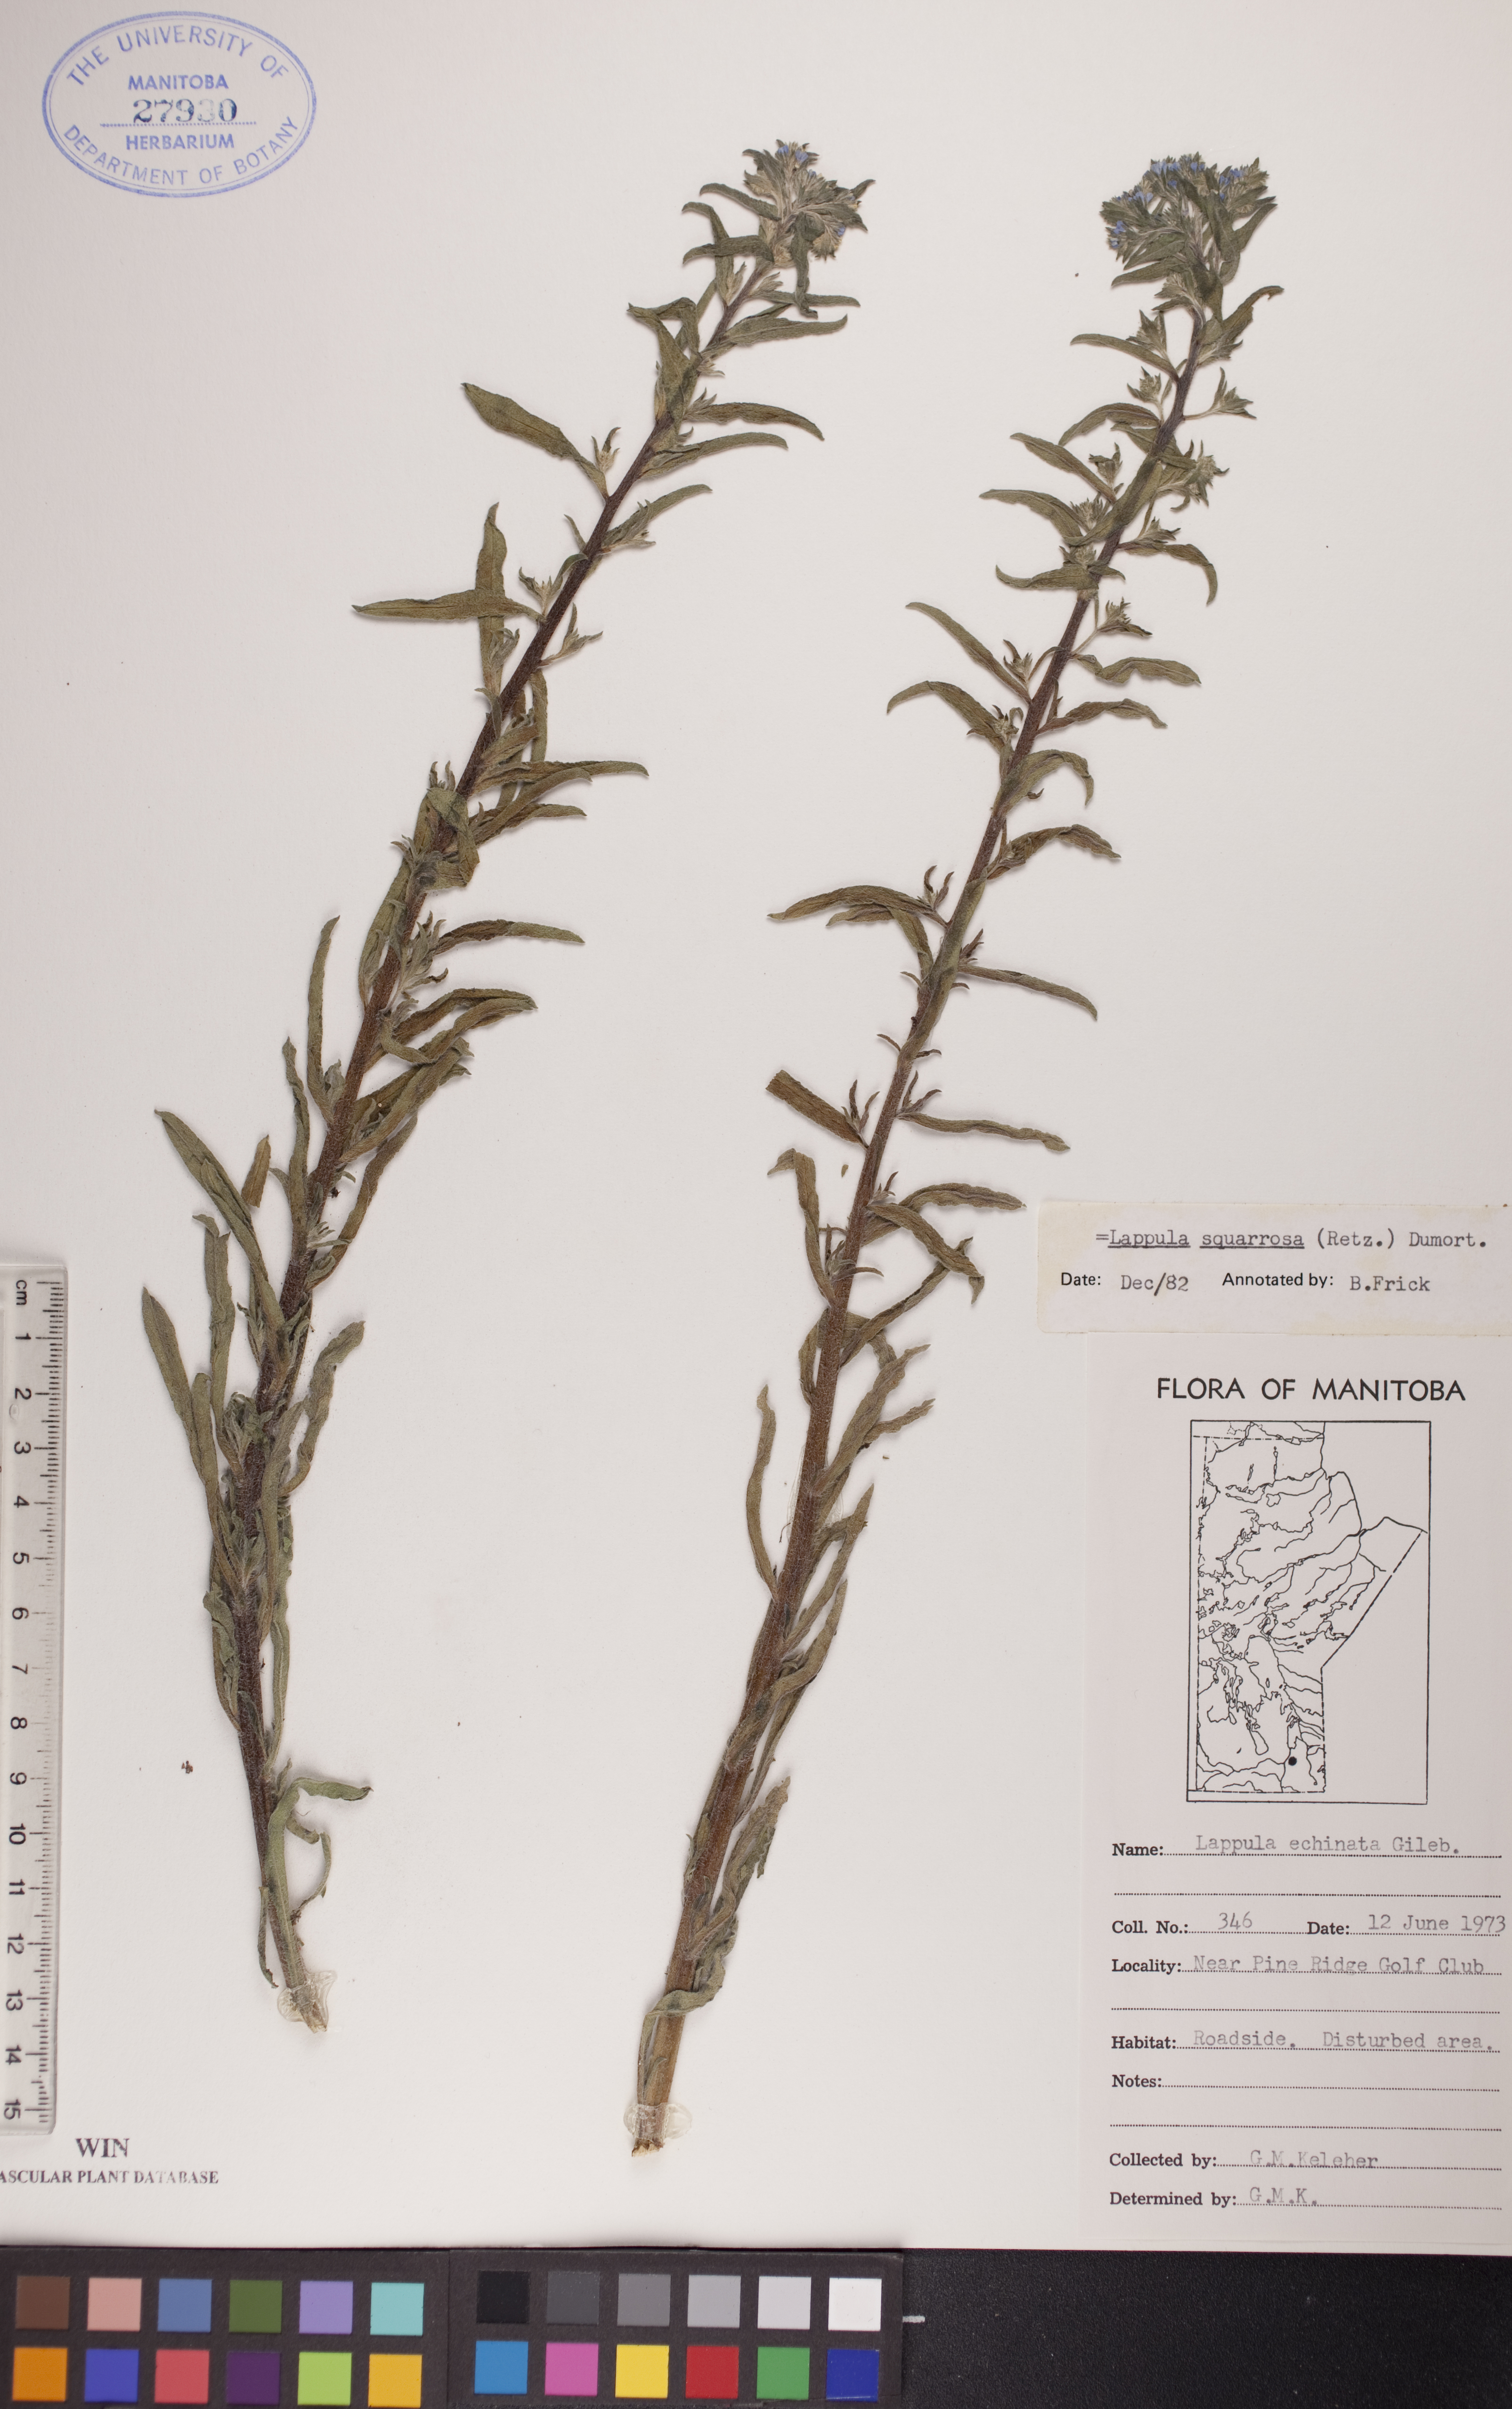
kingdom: Plantae
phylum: Tracheophyta
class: Magnoliopsida
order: Boraginales
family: Boraginaceae
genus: Lappula
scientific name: Lappula squarrosa
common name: European stickseed
